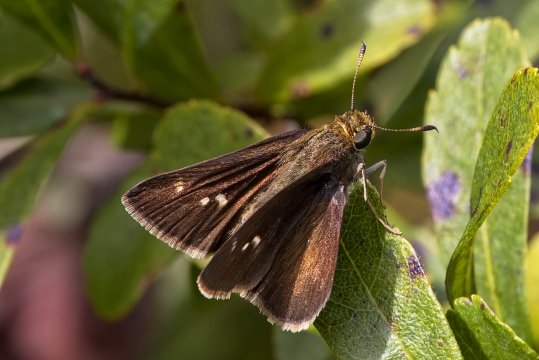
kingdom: Animalia
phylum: Arthropoda
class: Insecta
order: Lepidoptera
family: Hesperiidae
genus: Euphyes
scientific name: Euphyes vestris
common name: Dun Skipper
